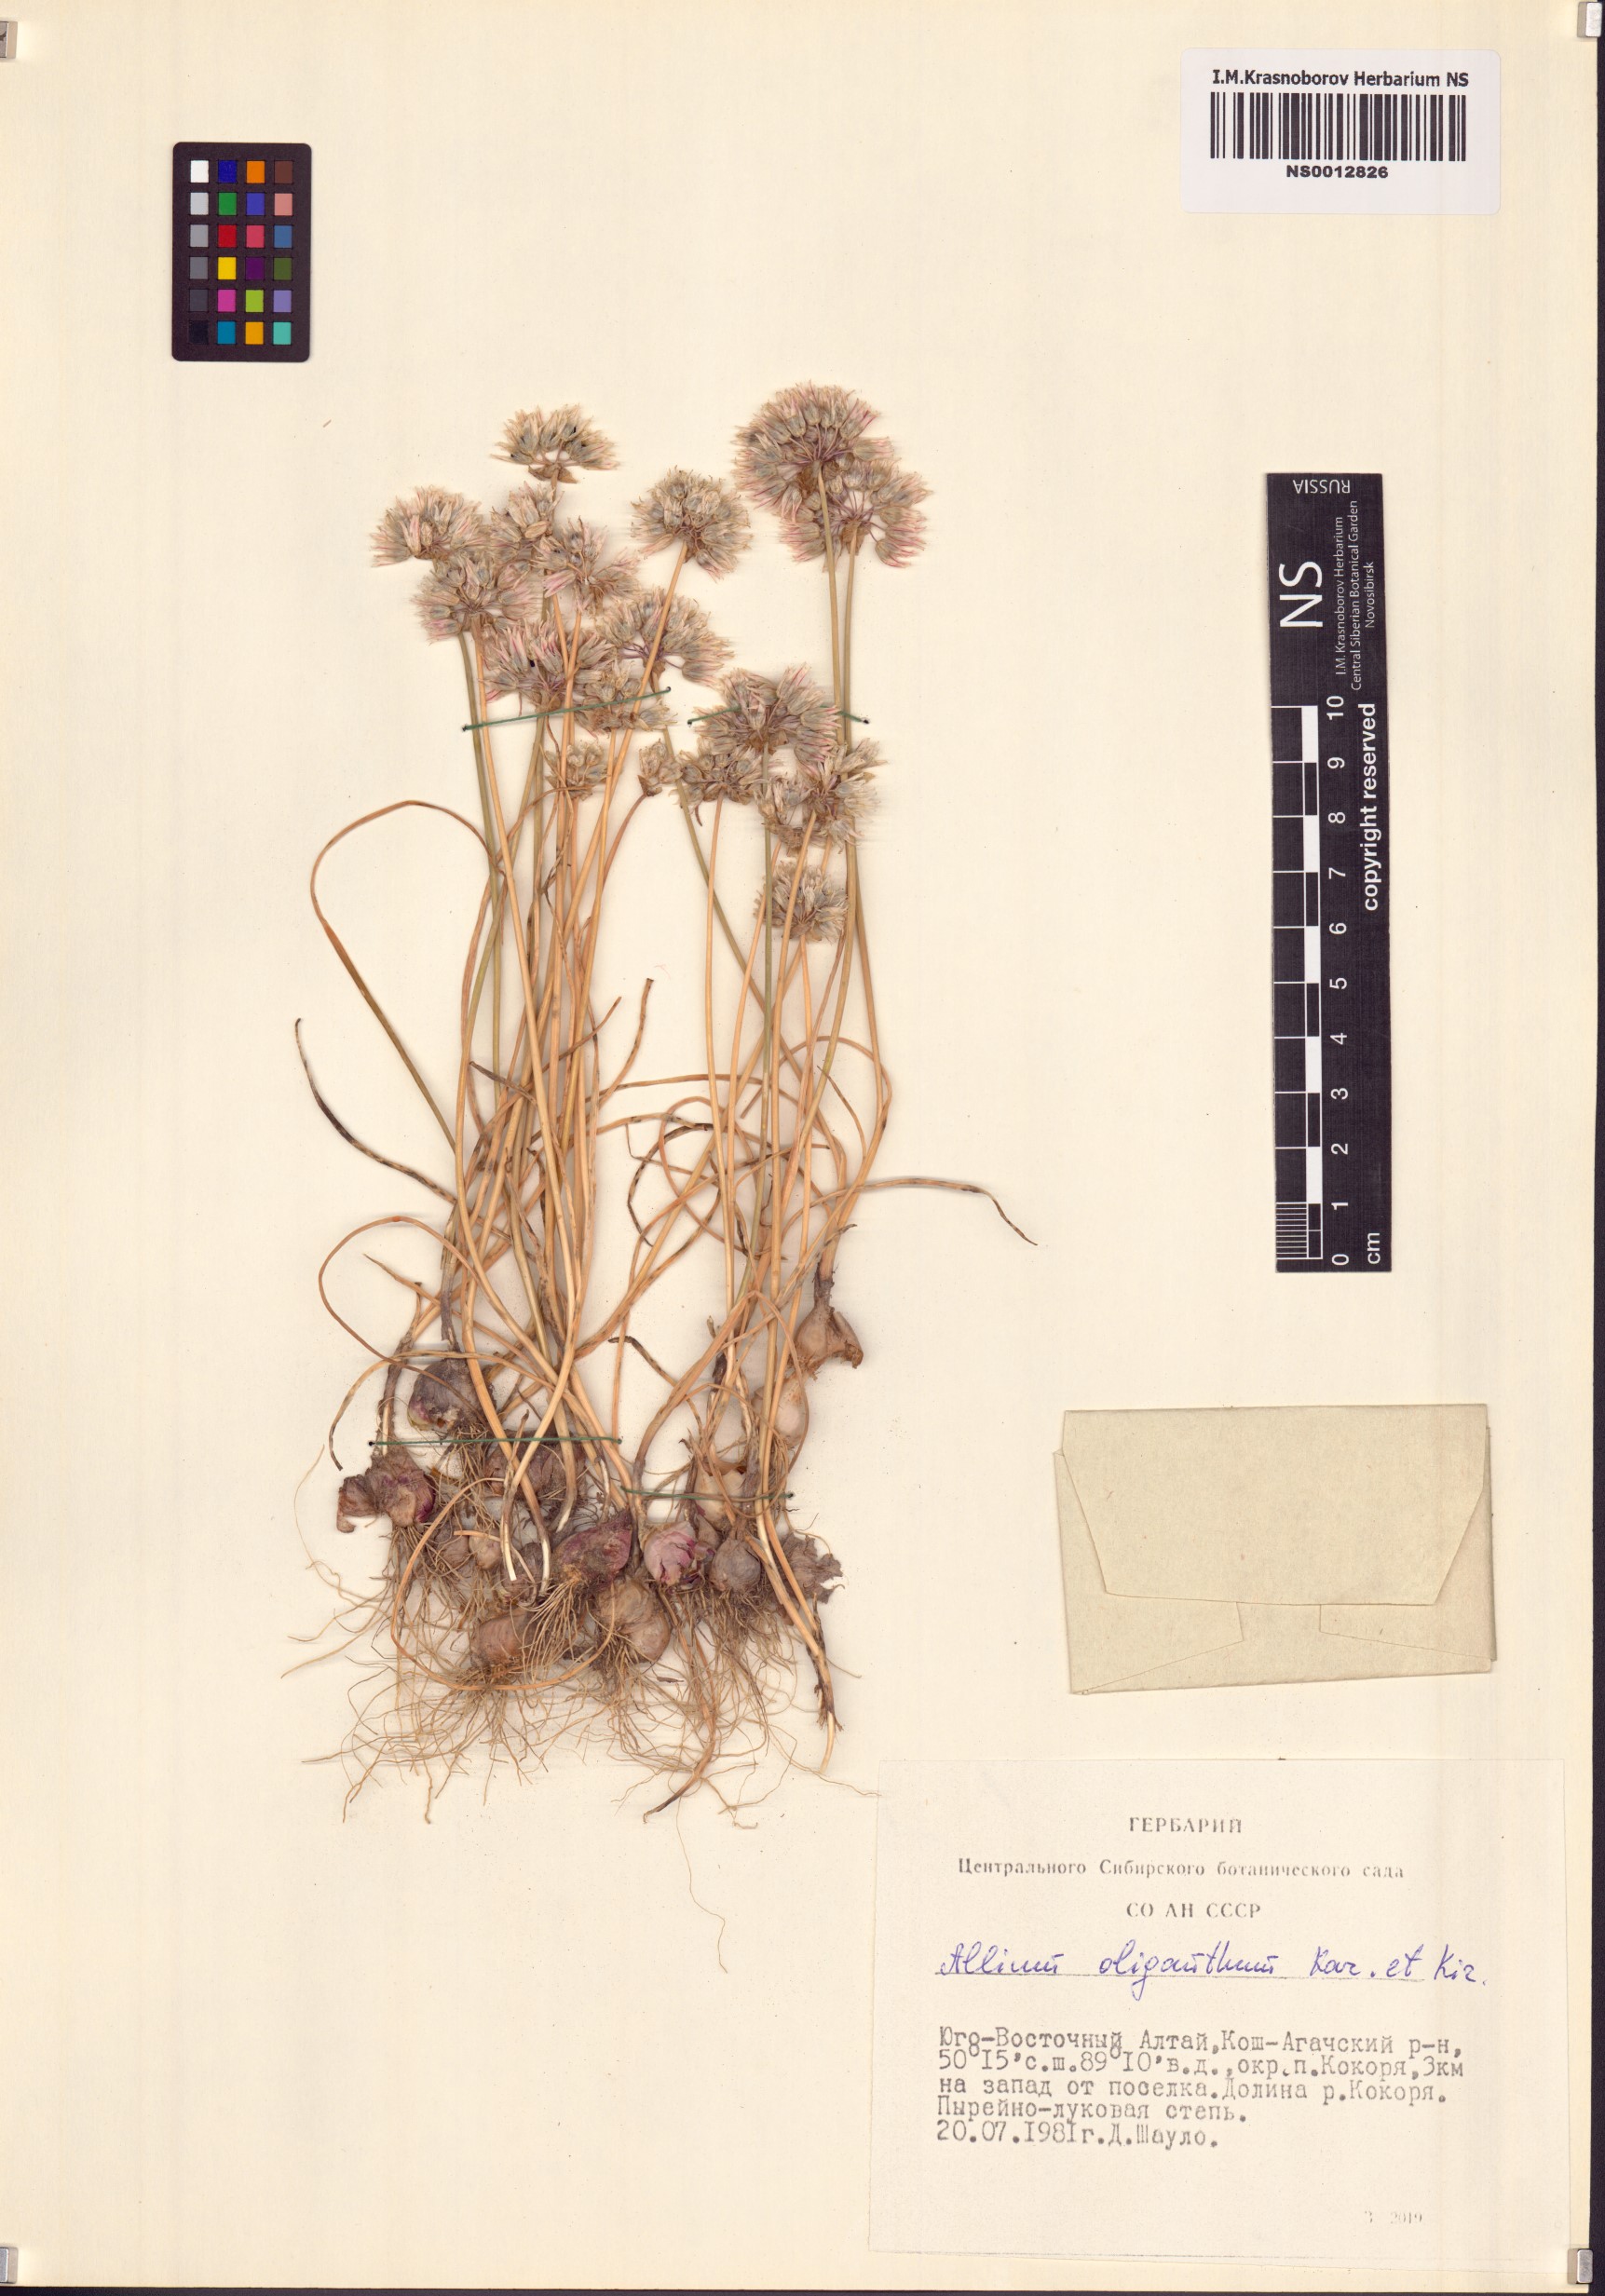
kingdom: Plantae
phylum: Tracheophyta
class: Liliopsida
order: Asparagales
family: Amaryllidaceae
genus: Allium
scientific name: Allium oliganthum
